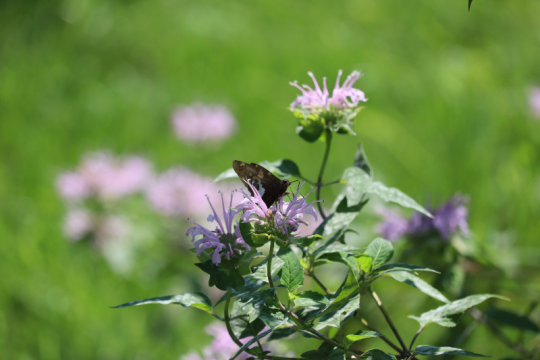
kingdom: Animalia
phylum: Arthropoda
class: Insecta
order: Lepidoptera
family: Hesperiidae
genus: Epargyreus
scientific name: Epargyreus clarus
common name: Silver-spotted Skipper
